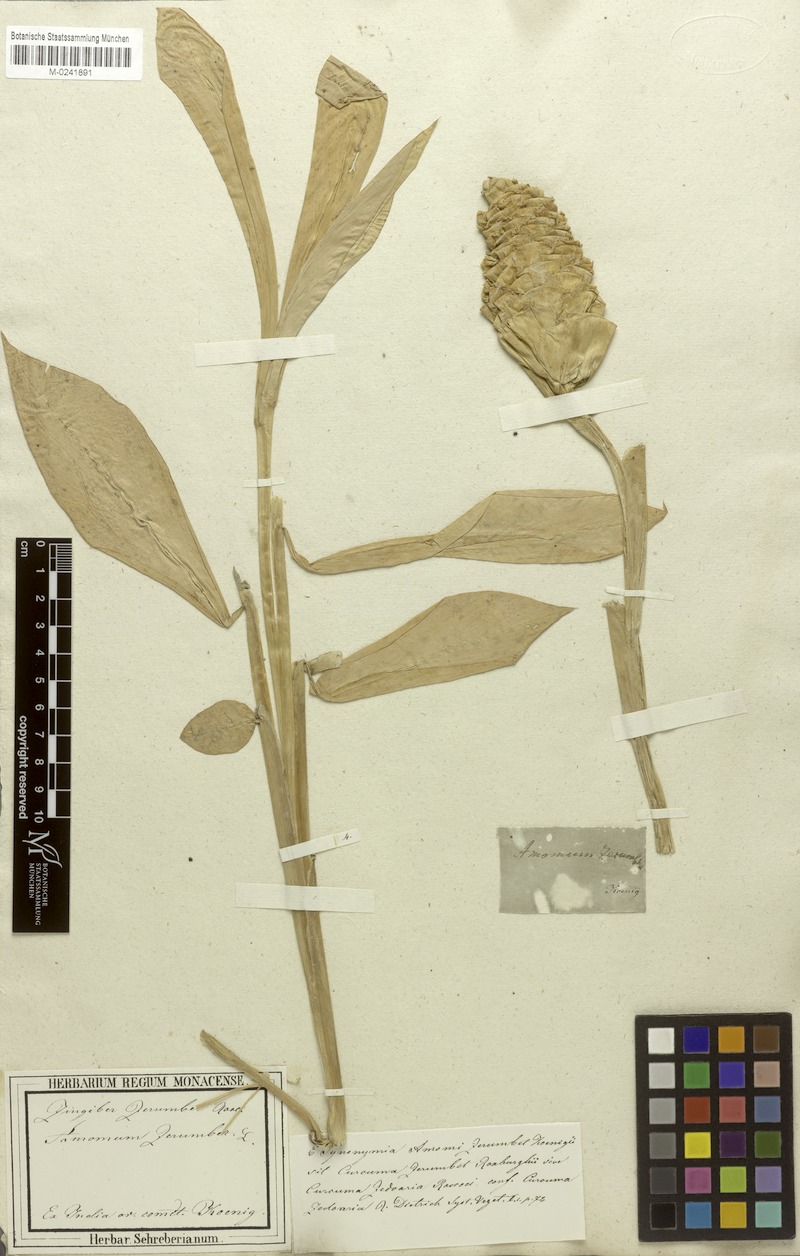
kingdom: Plantae
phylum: Tracheophyta
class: Liliopsida
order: Zingiberales
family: Zingiberaceae
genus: Curcuma
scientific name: Curcuma euchroma
